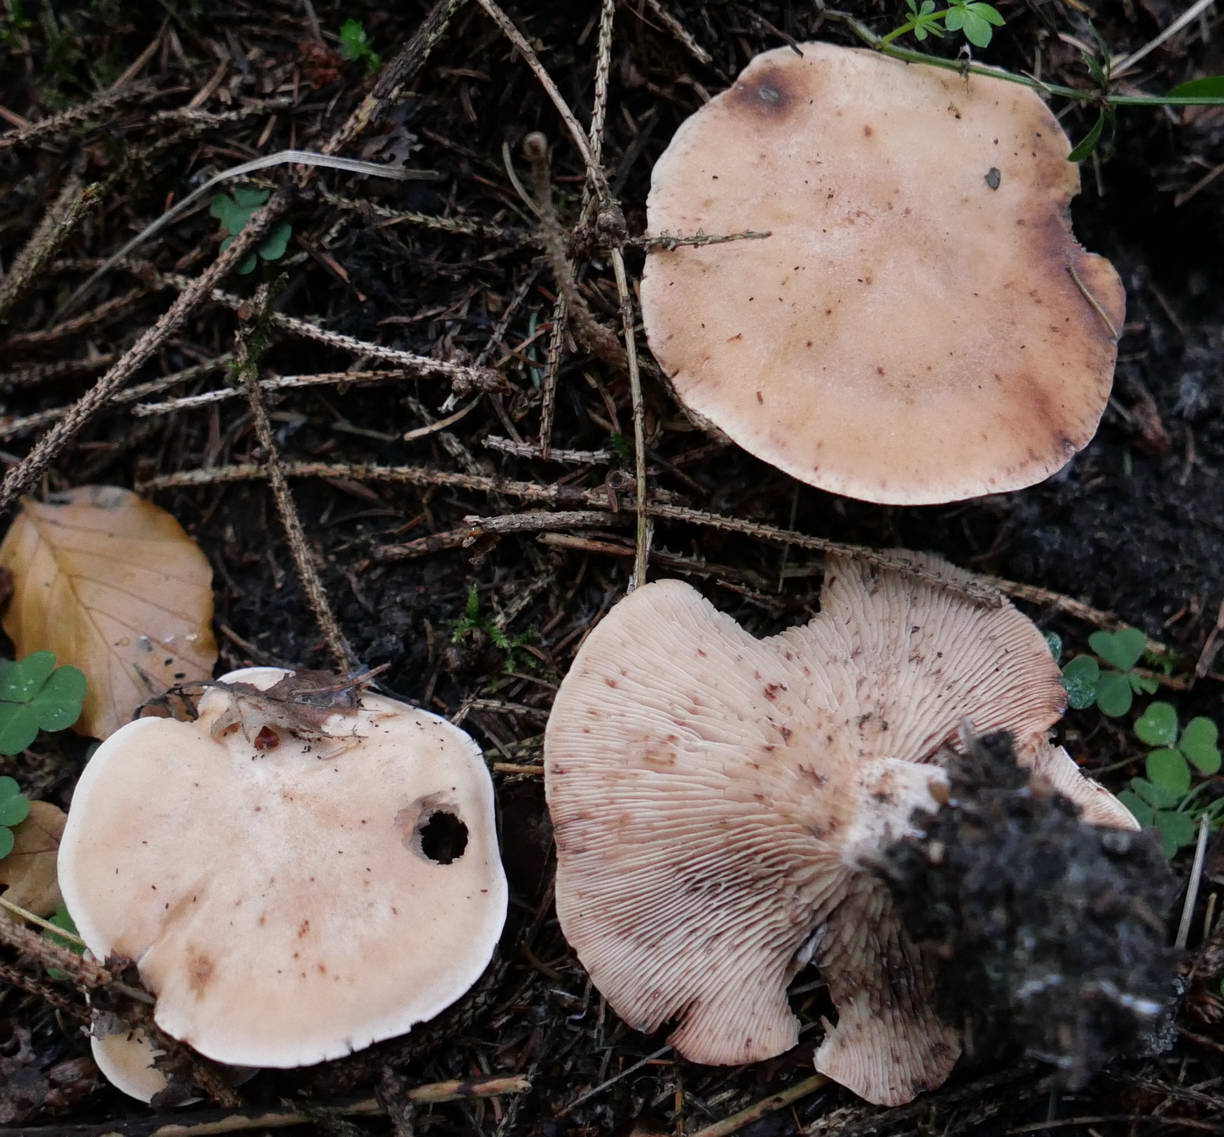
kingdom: Fungi
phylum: Basidiomycota
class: Agaricomycetes
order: Agaricales
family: Entolomataceae
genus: Clitopilus
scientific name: Clitopilus geminus
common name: kødfarvet troldhat
